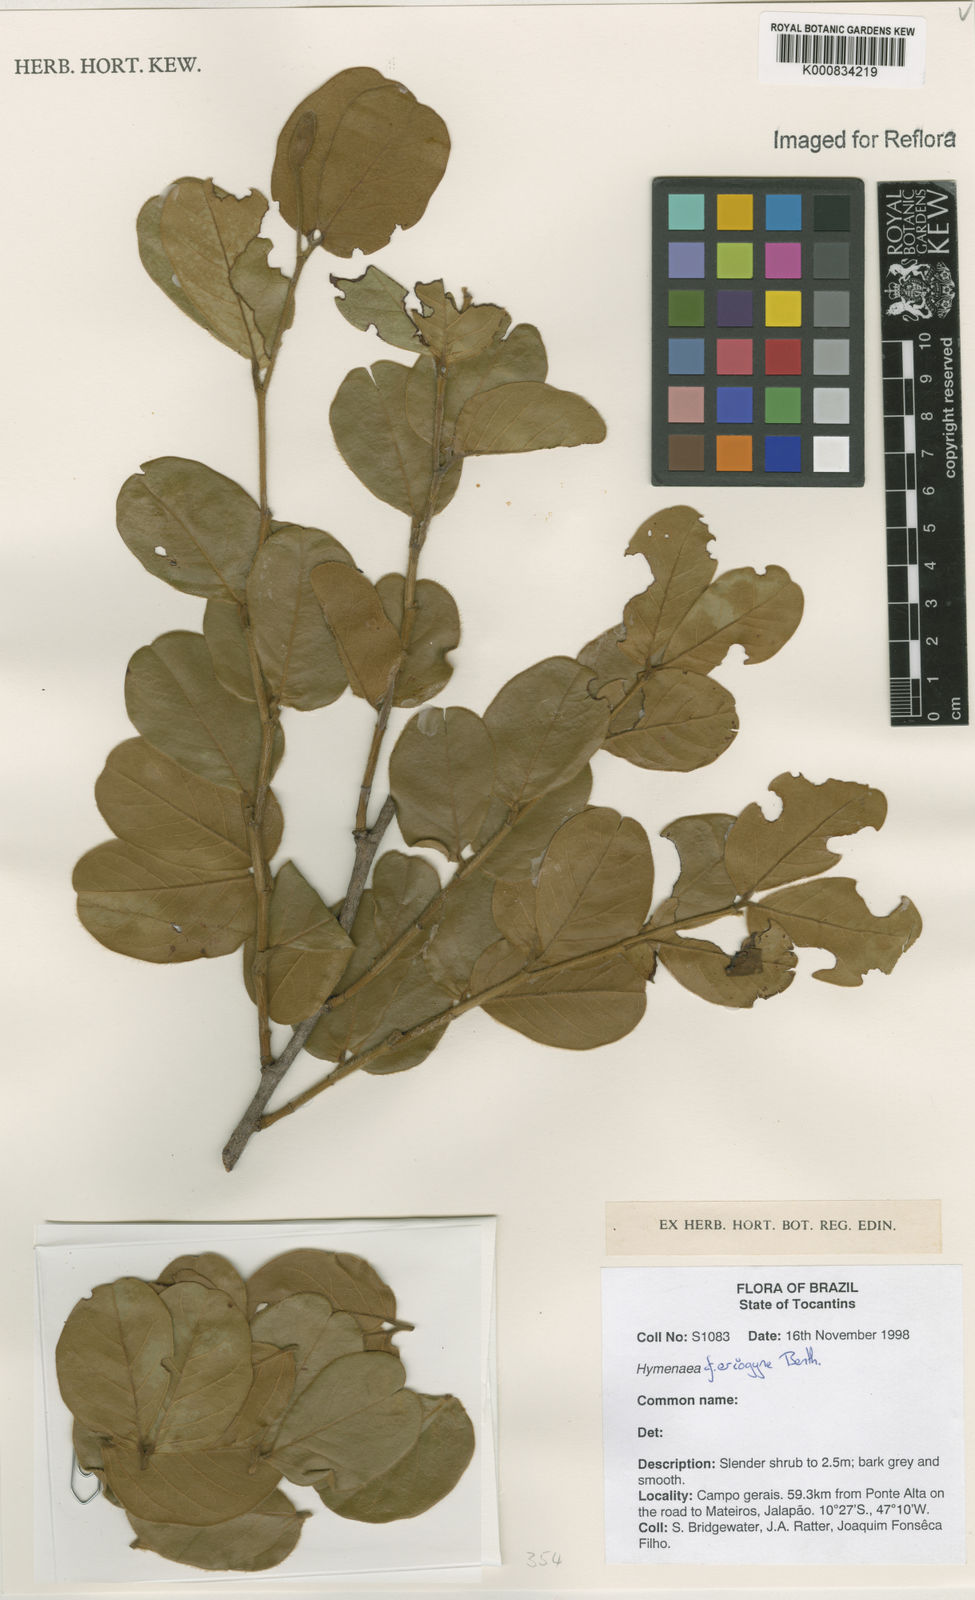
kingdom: Plantae
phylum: Tracheophyta
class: Magnoliopsida
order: Fabales
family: Fabaceae
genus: Hymenaea
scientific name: Hymenaea eriogyne
